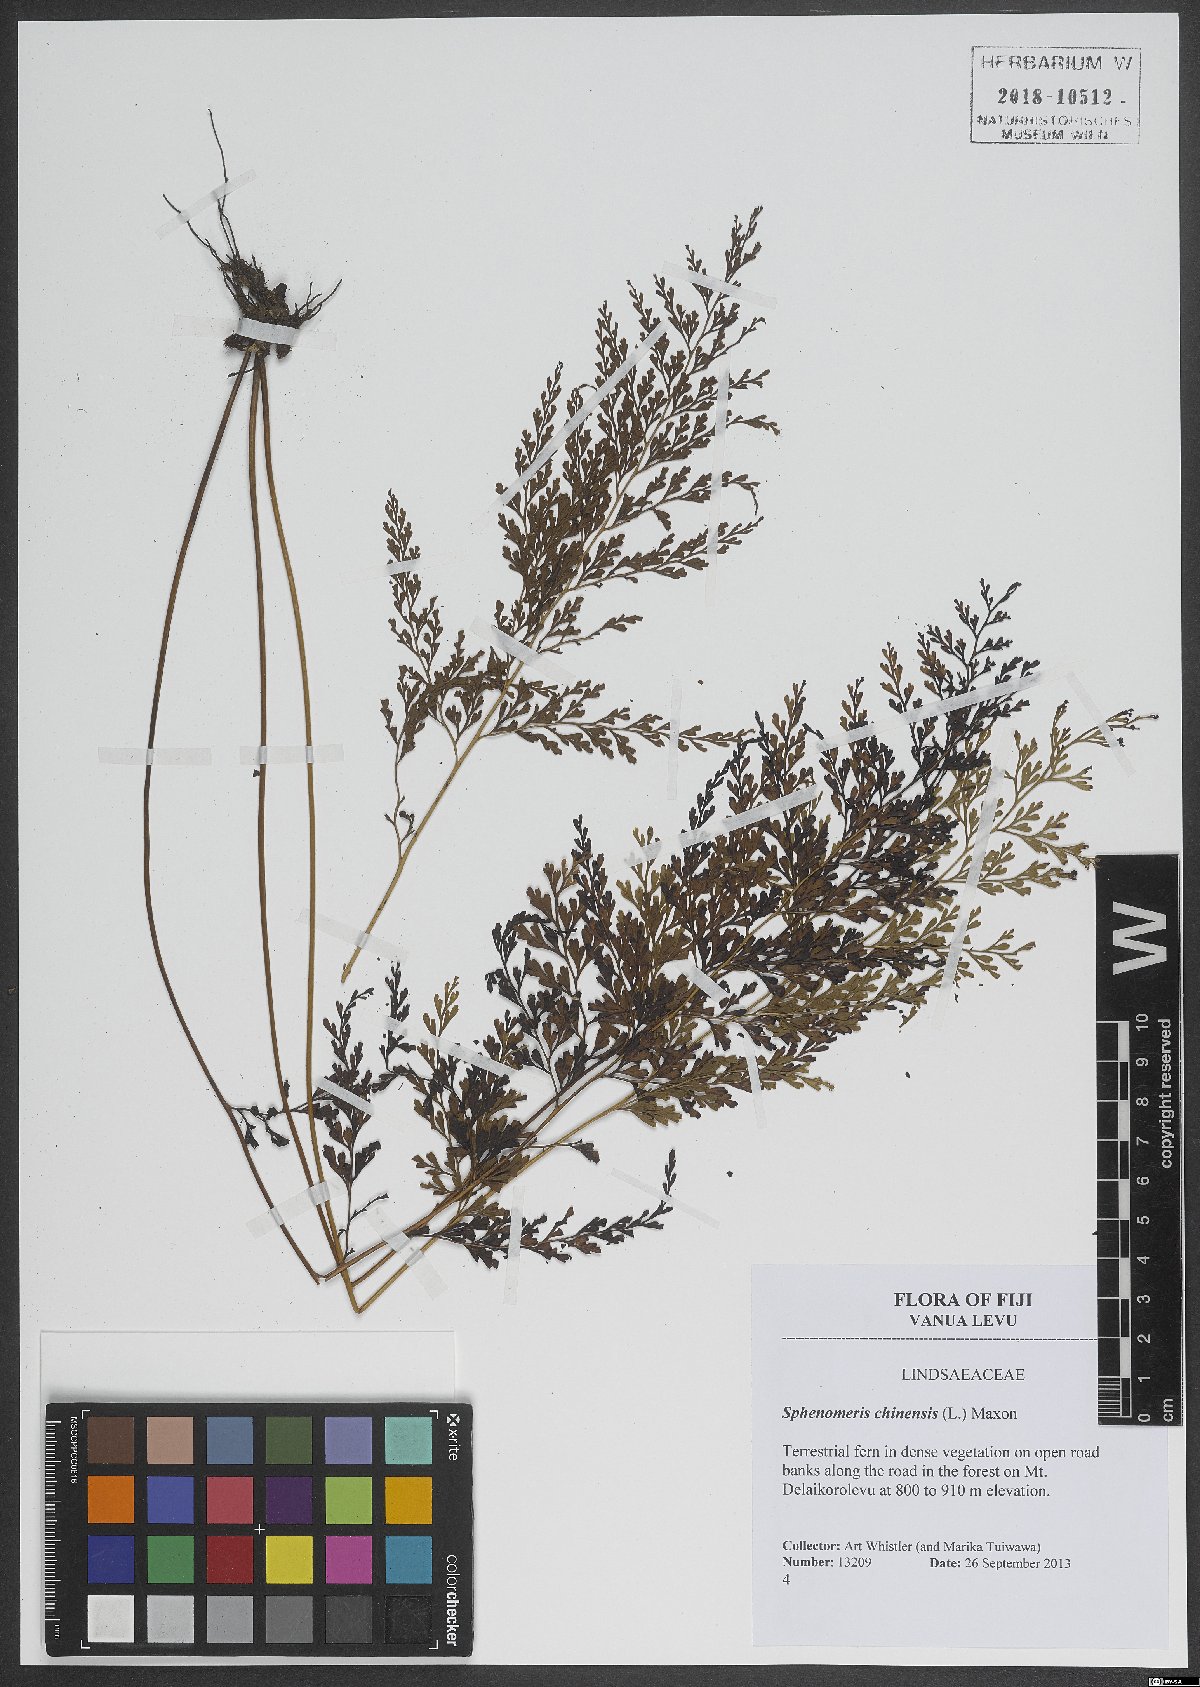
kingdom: Plantae
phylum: Tracheophyta
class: Polypodiopsida
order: Polypodiales
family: Lindsaeaceae
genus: Odontosoria
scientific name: Odontosoria chinensis
